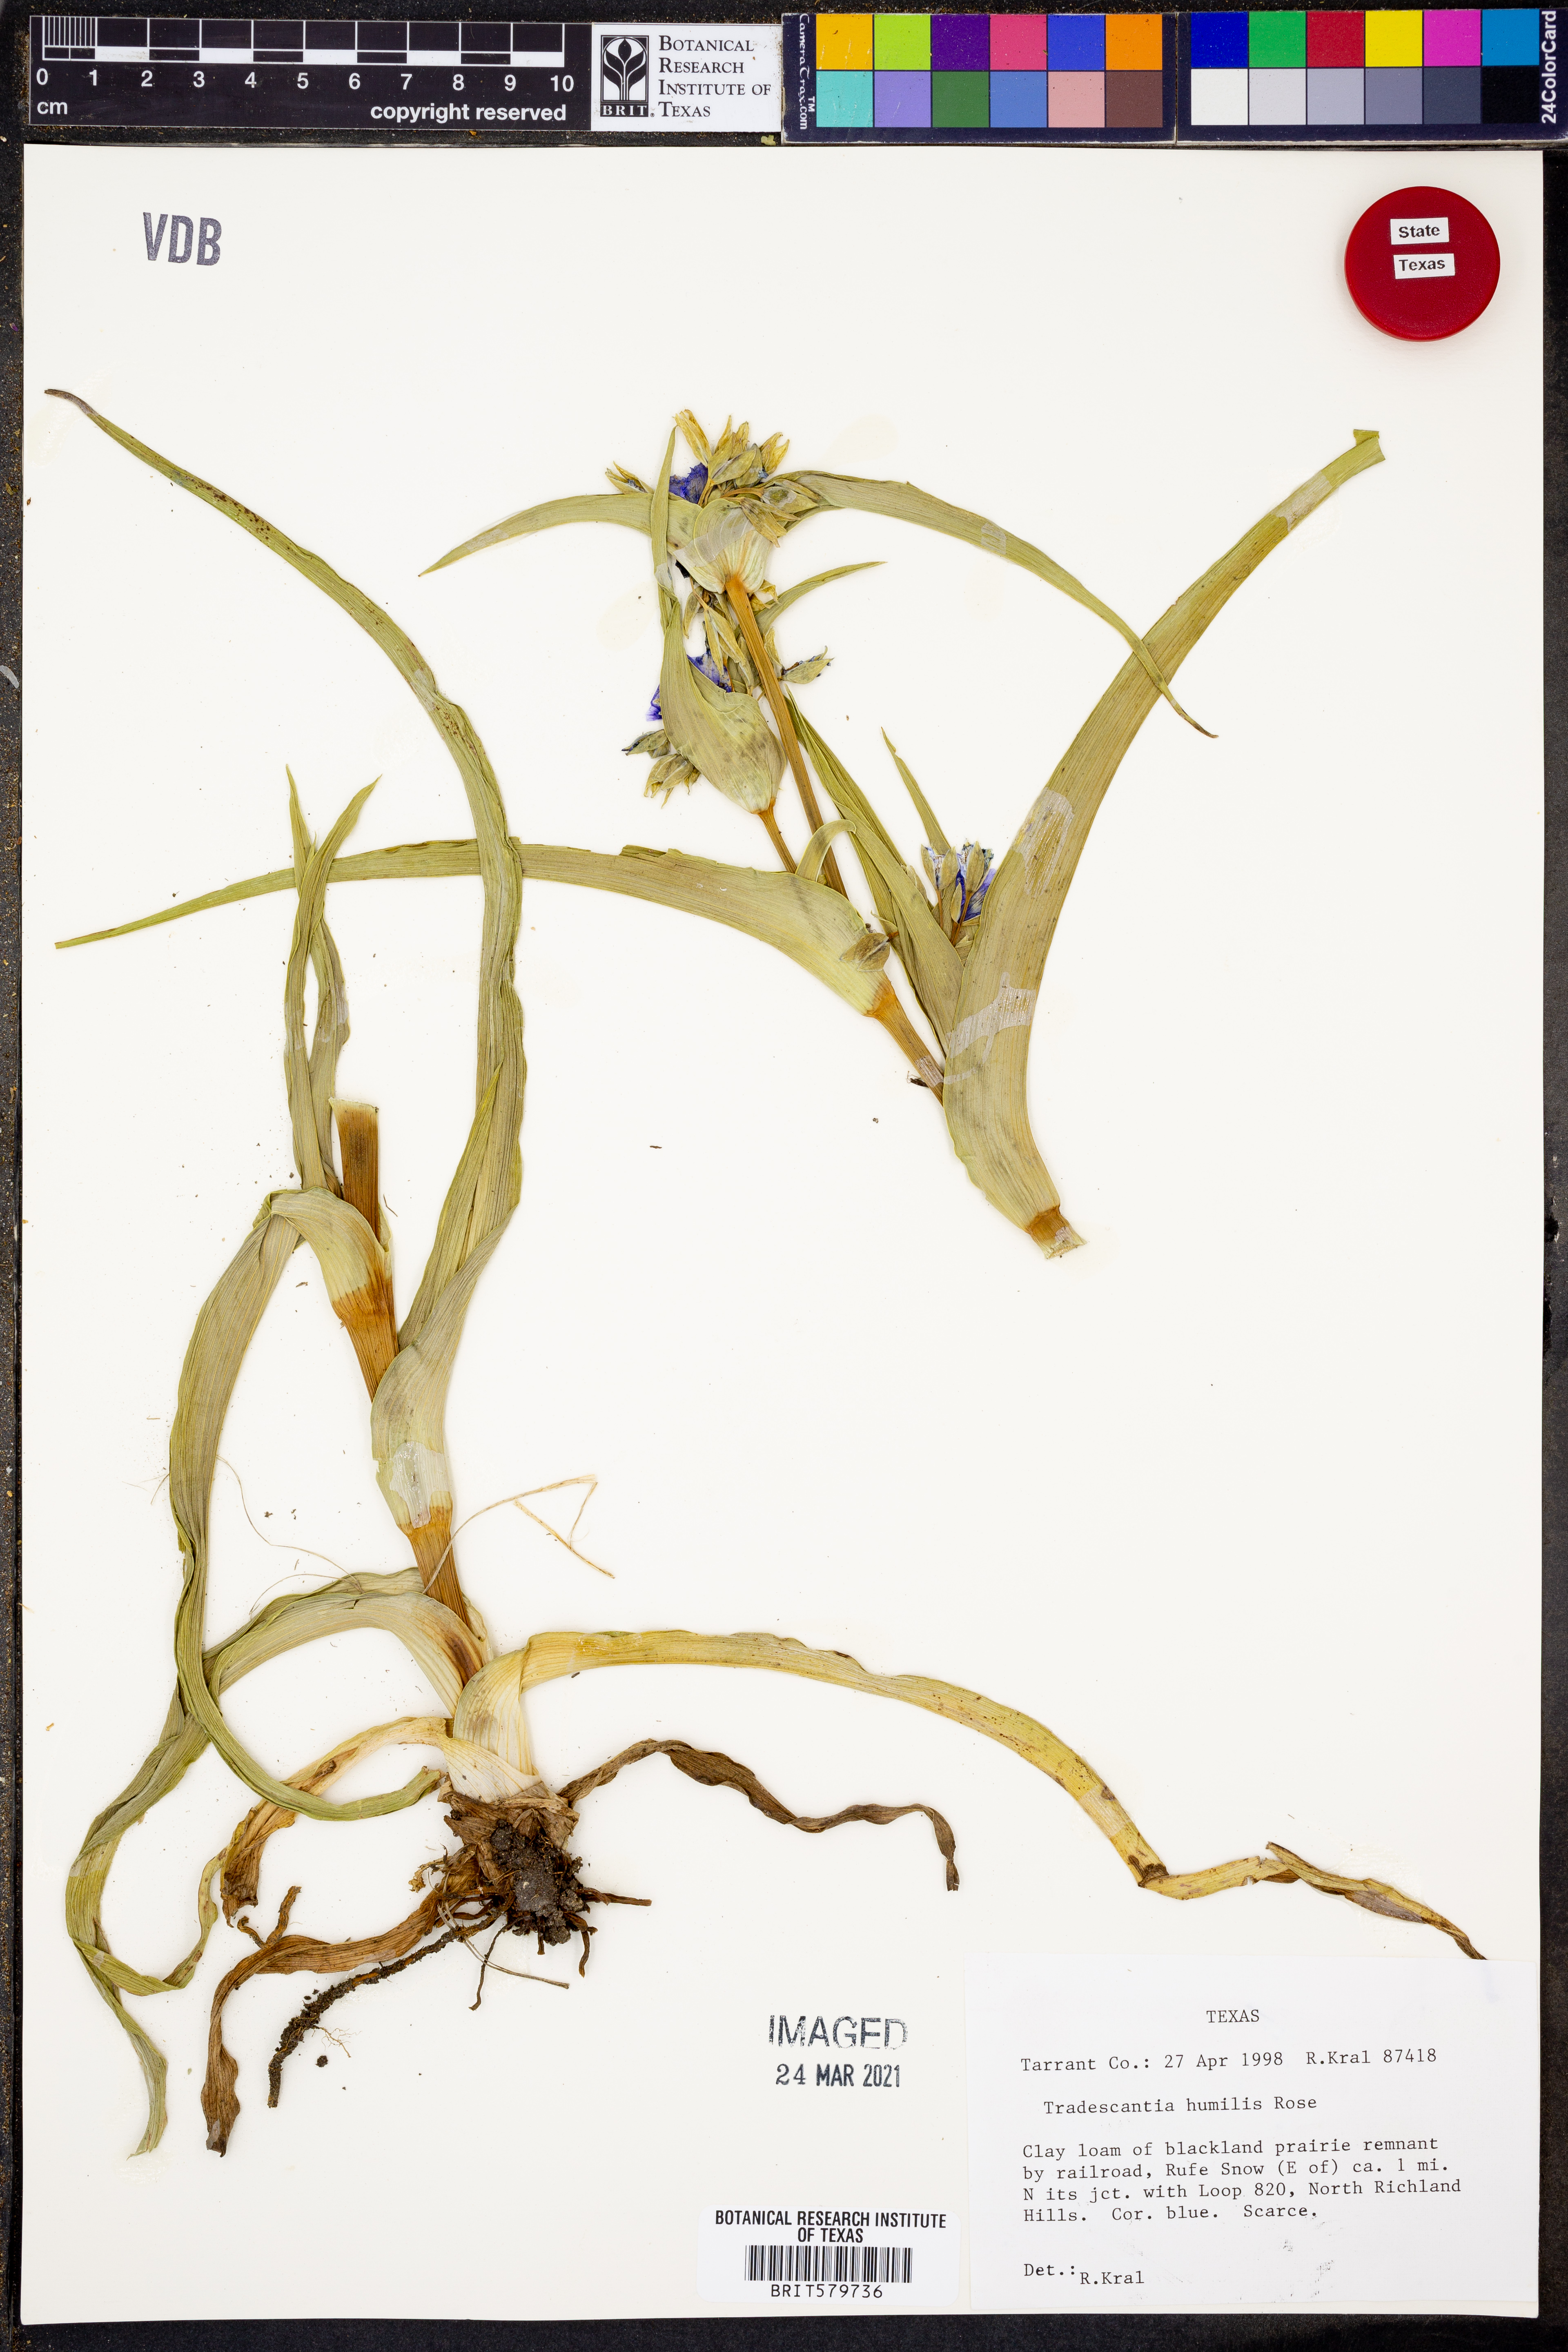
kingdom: Plantae
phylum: Tracheophyta
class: Liliopsida
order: Commelinales
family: Commelinaceae
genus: Tradescantia
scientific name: Tradescantia humilis
